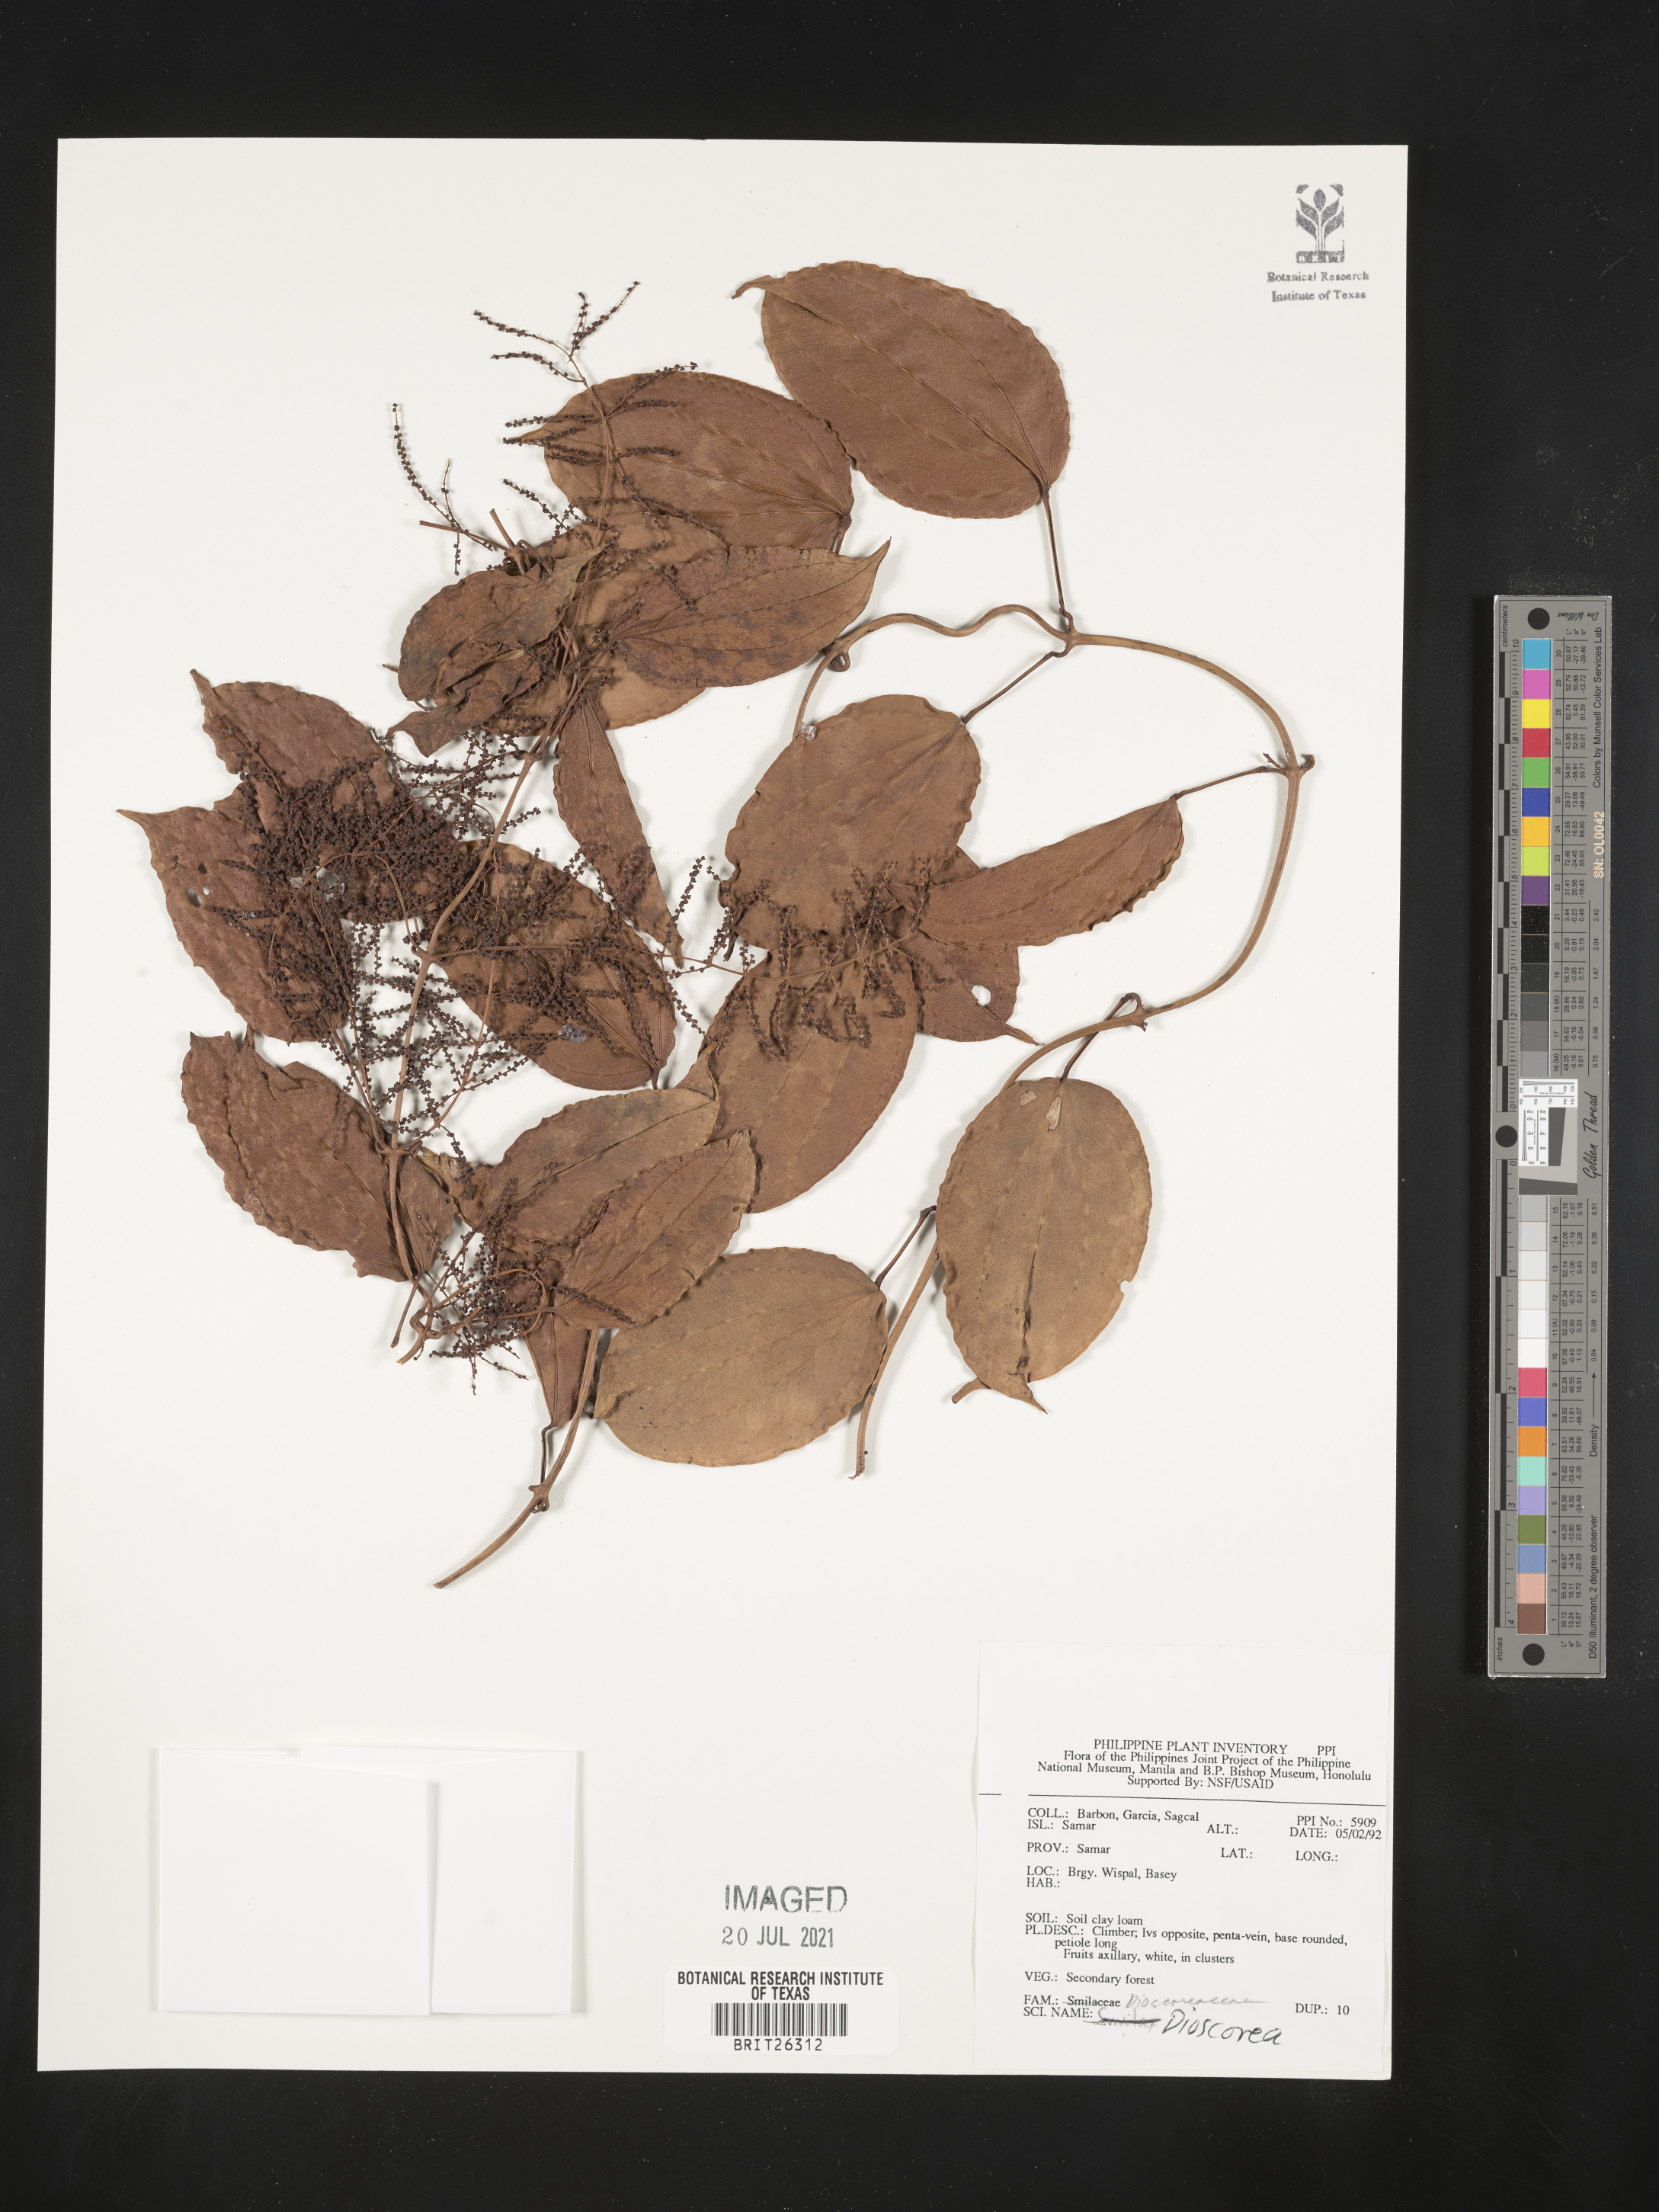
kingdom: Plantae
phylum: Tracheophyta
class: Liliopsida
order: Dioscoreales
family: Dioscoreaceae
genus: Dioscorea
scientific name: Dioscorea
